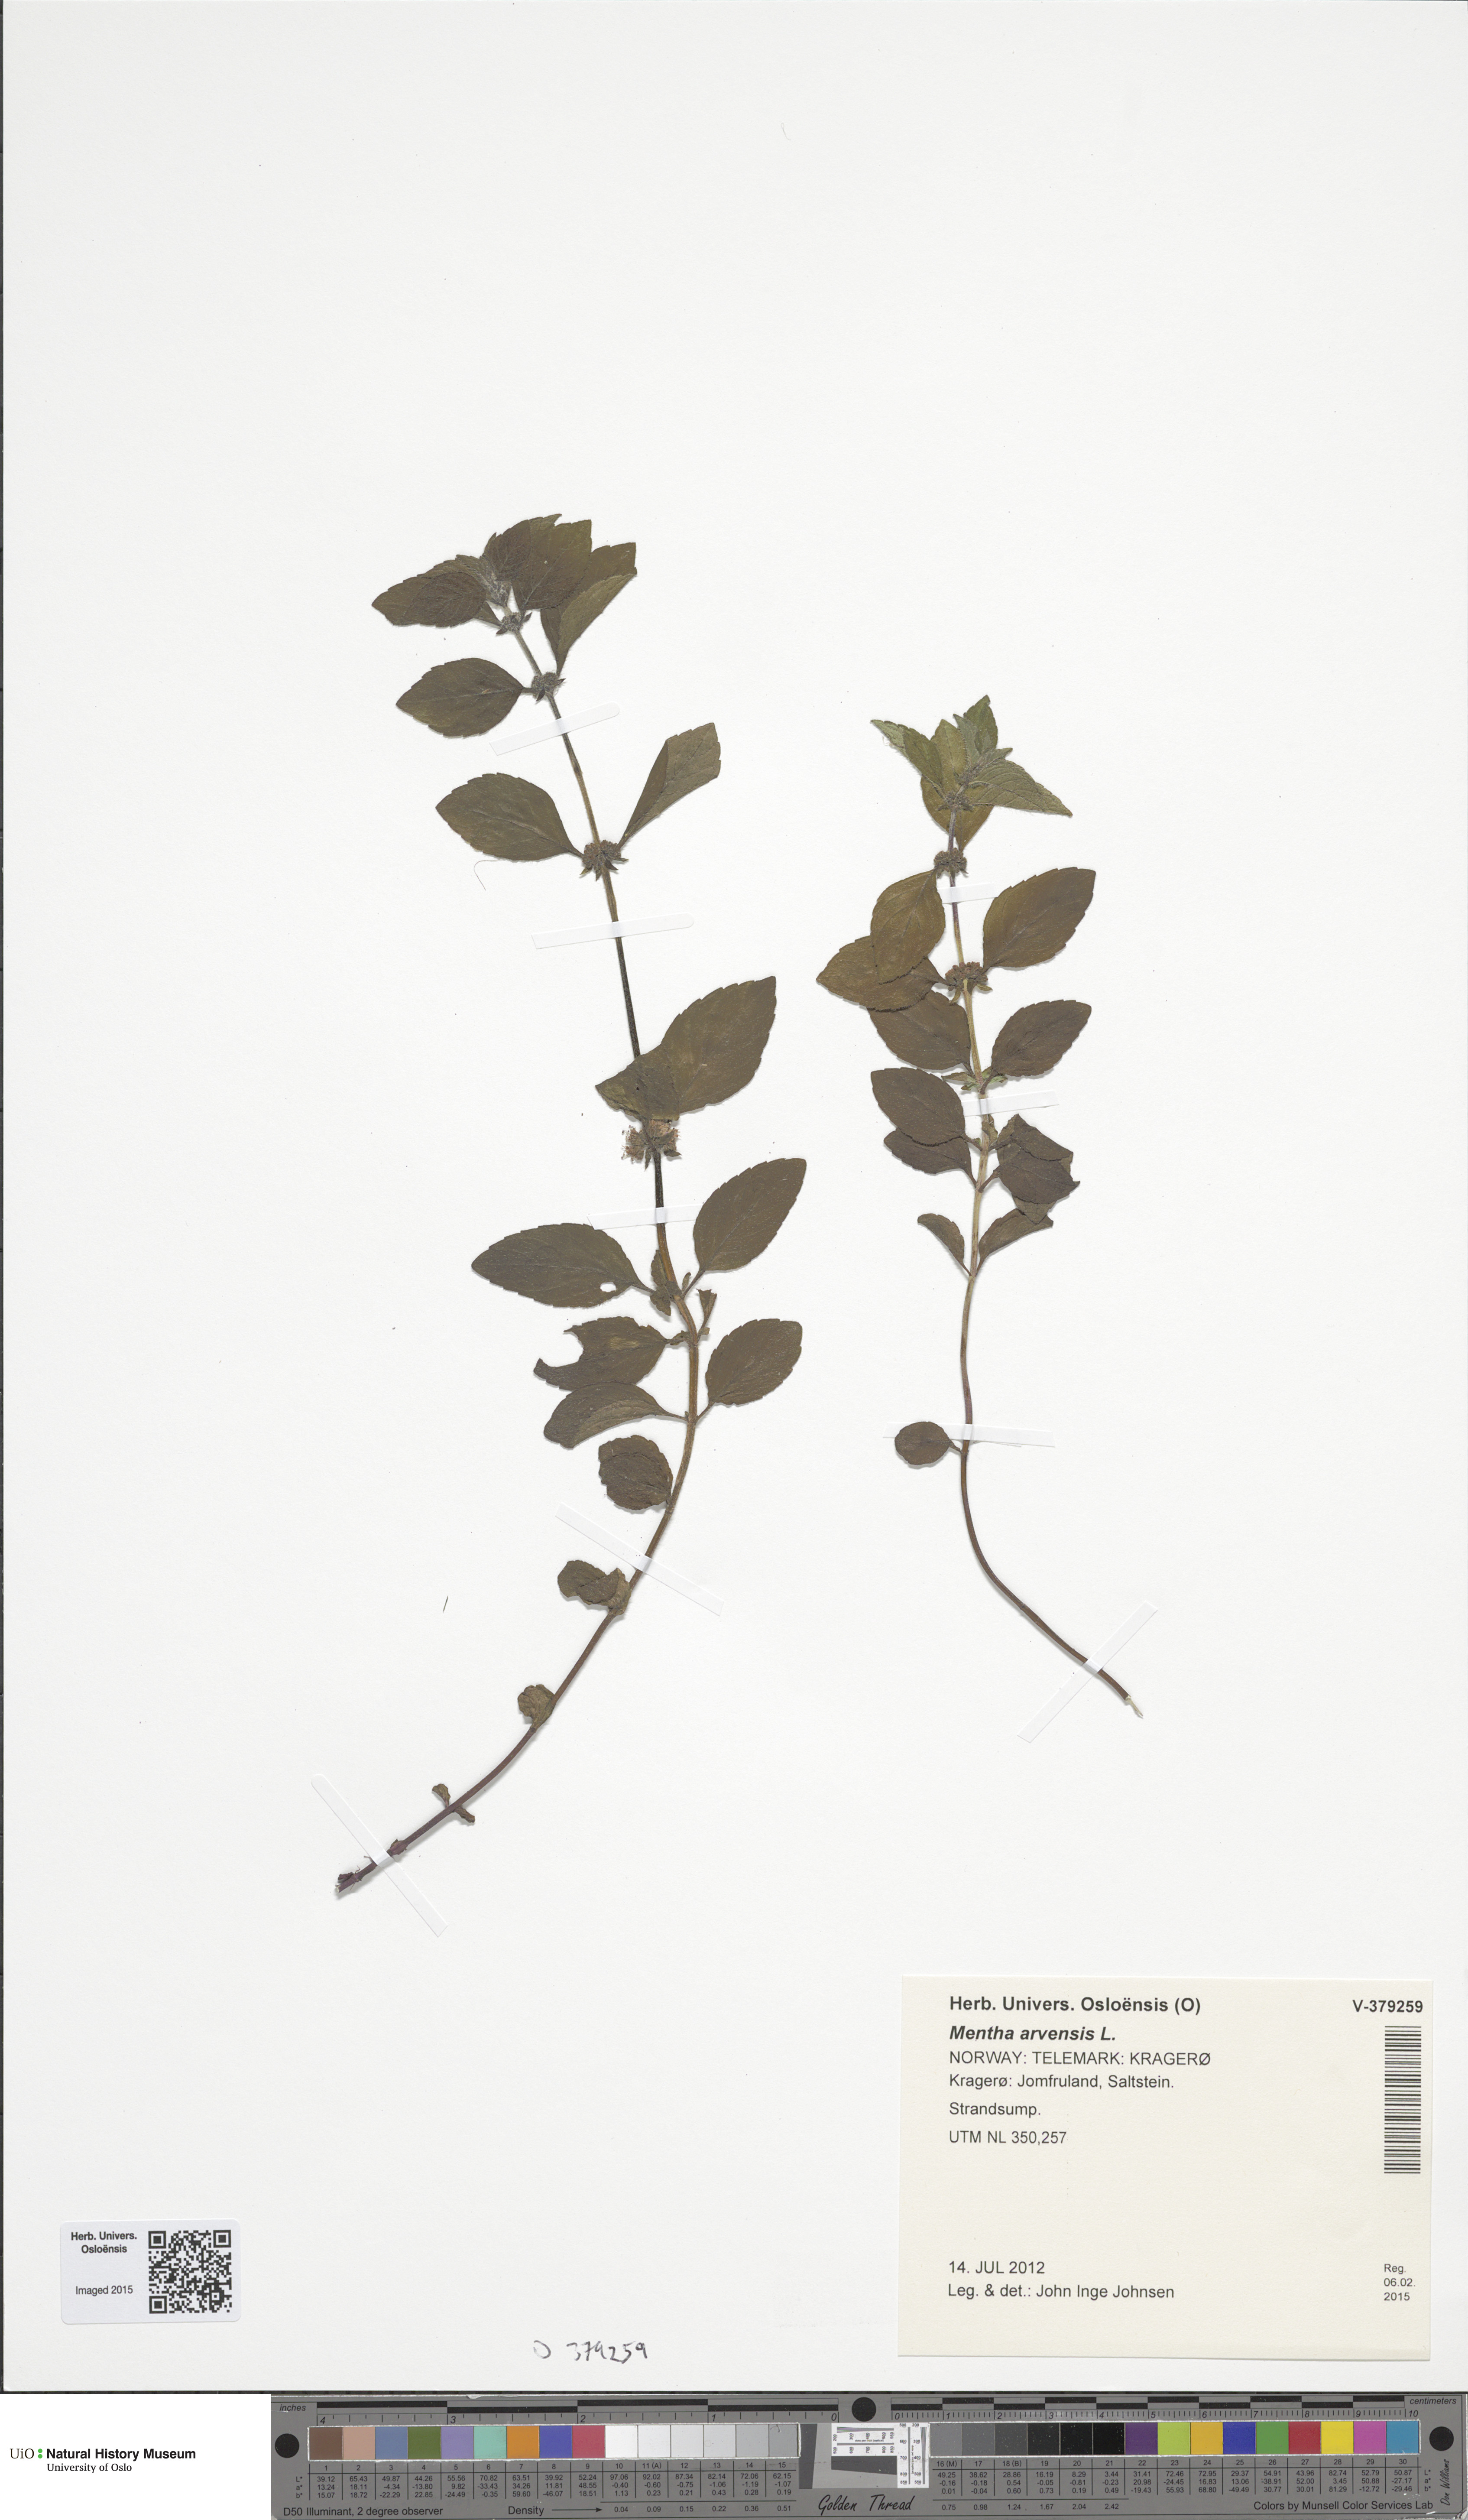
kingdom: Plantae
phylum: Tracheophyta
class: Magnoliopsida
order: Lamiales
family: Lamiaceae
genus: Mentha
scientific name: Mentha arvensis
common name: Corn mint
